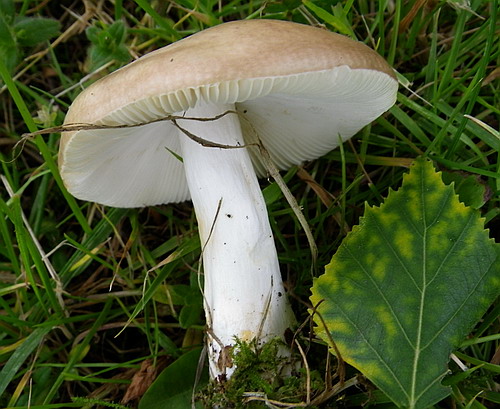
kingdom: Fungi
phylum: Basidiomycota
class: Agaricomycetes
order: Russulales
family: Russulaceae
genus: Russula
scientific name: Russula depallens
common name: falmende skørhat
